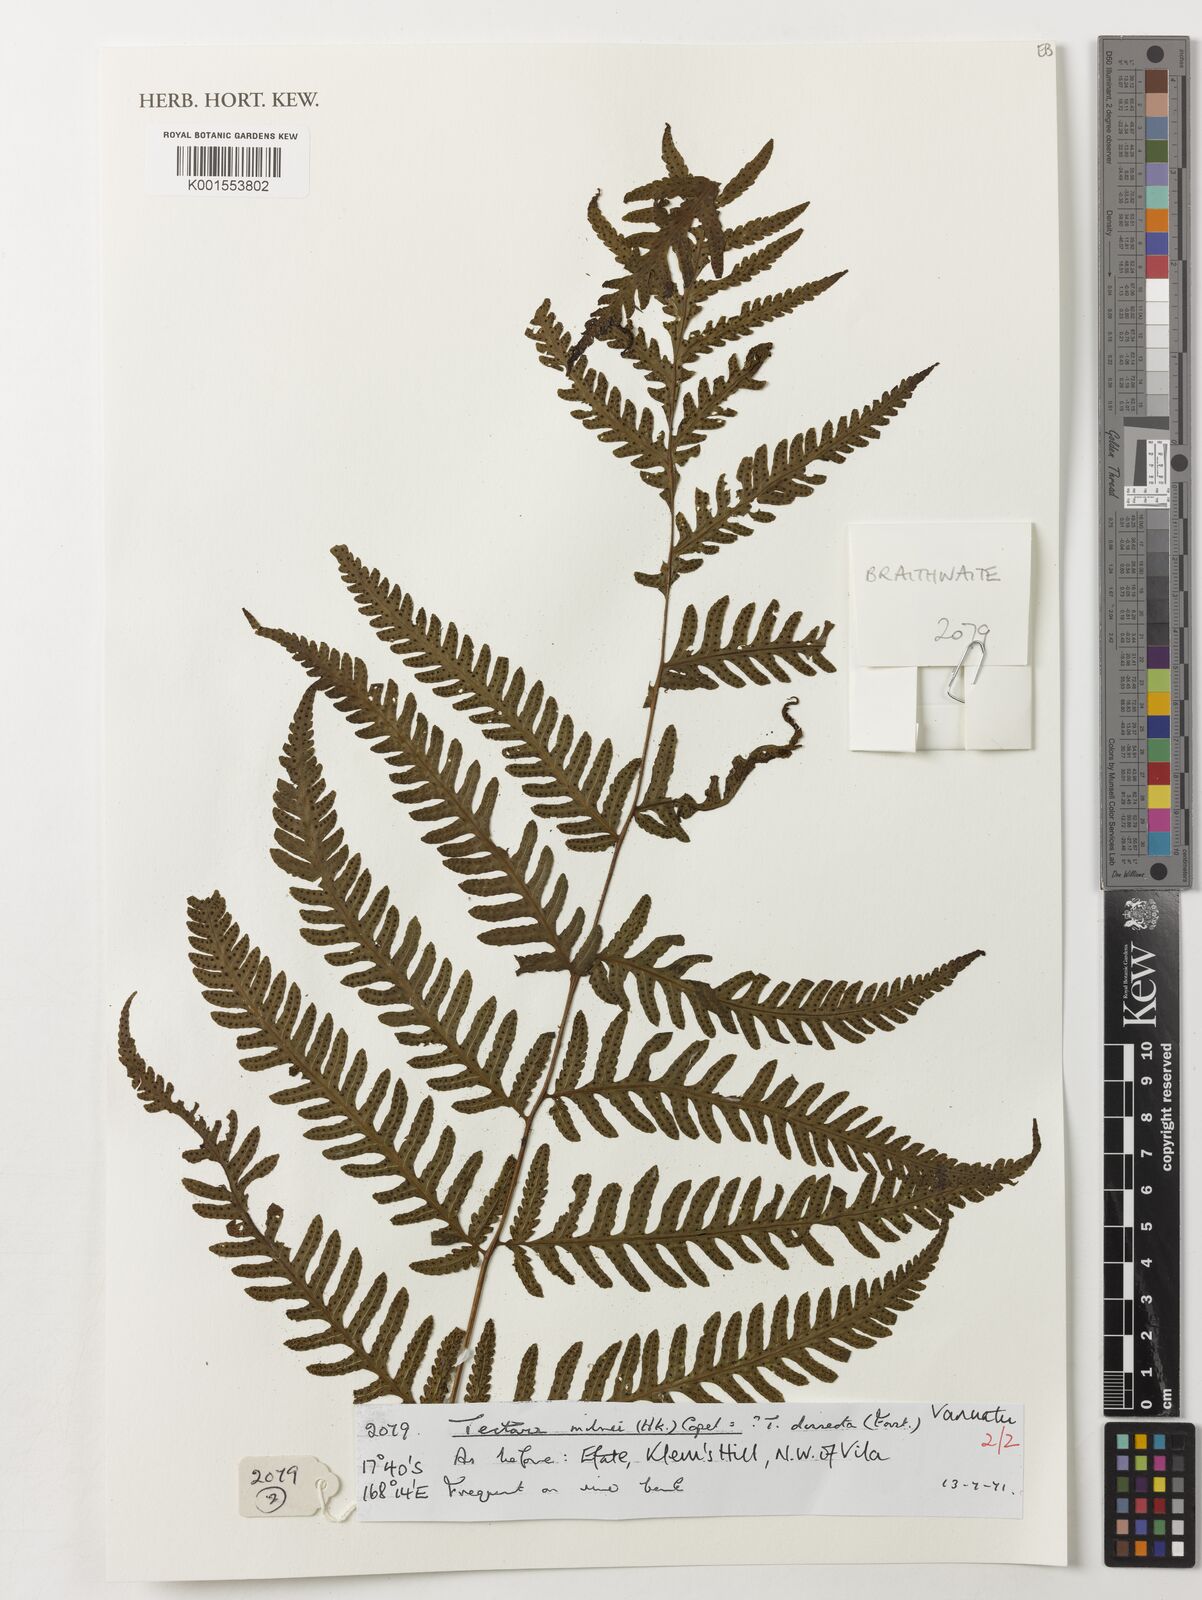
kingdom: Plantae
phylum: Tracheophyta
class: Polypodiopsida
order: Polypodiales
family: Tectariaceae
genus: Tectaria
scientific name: Tectaria hookeri
